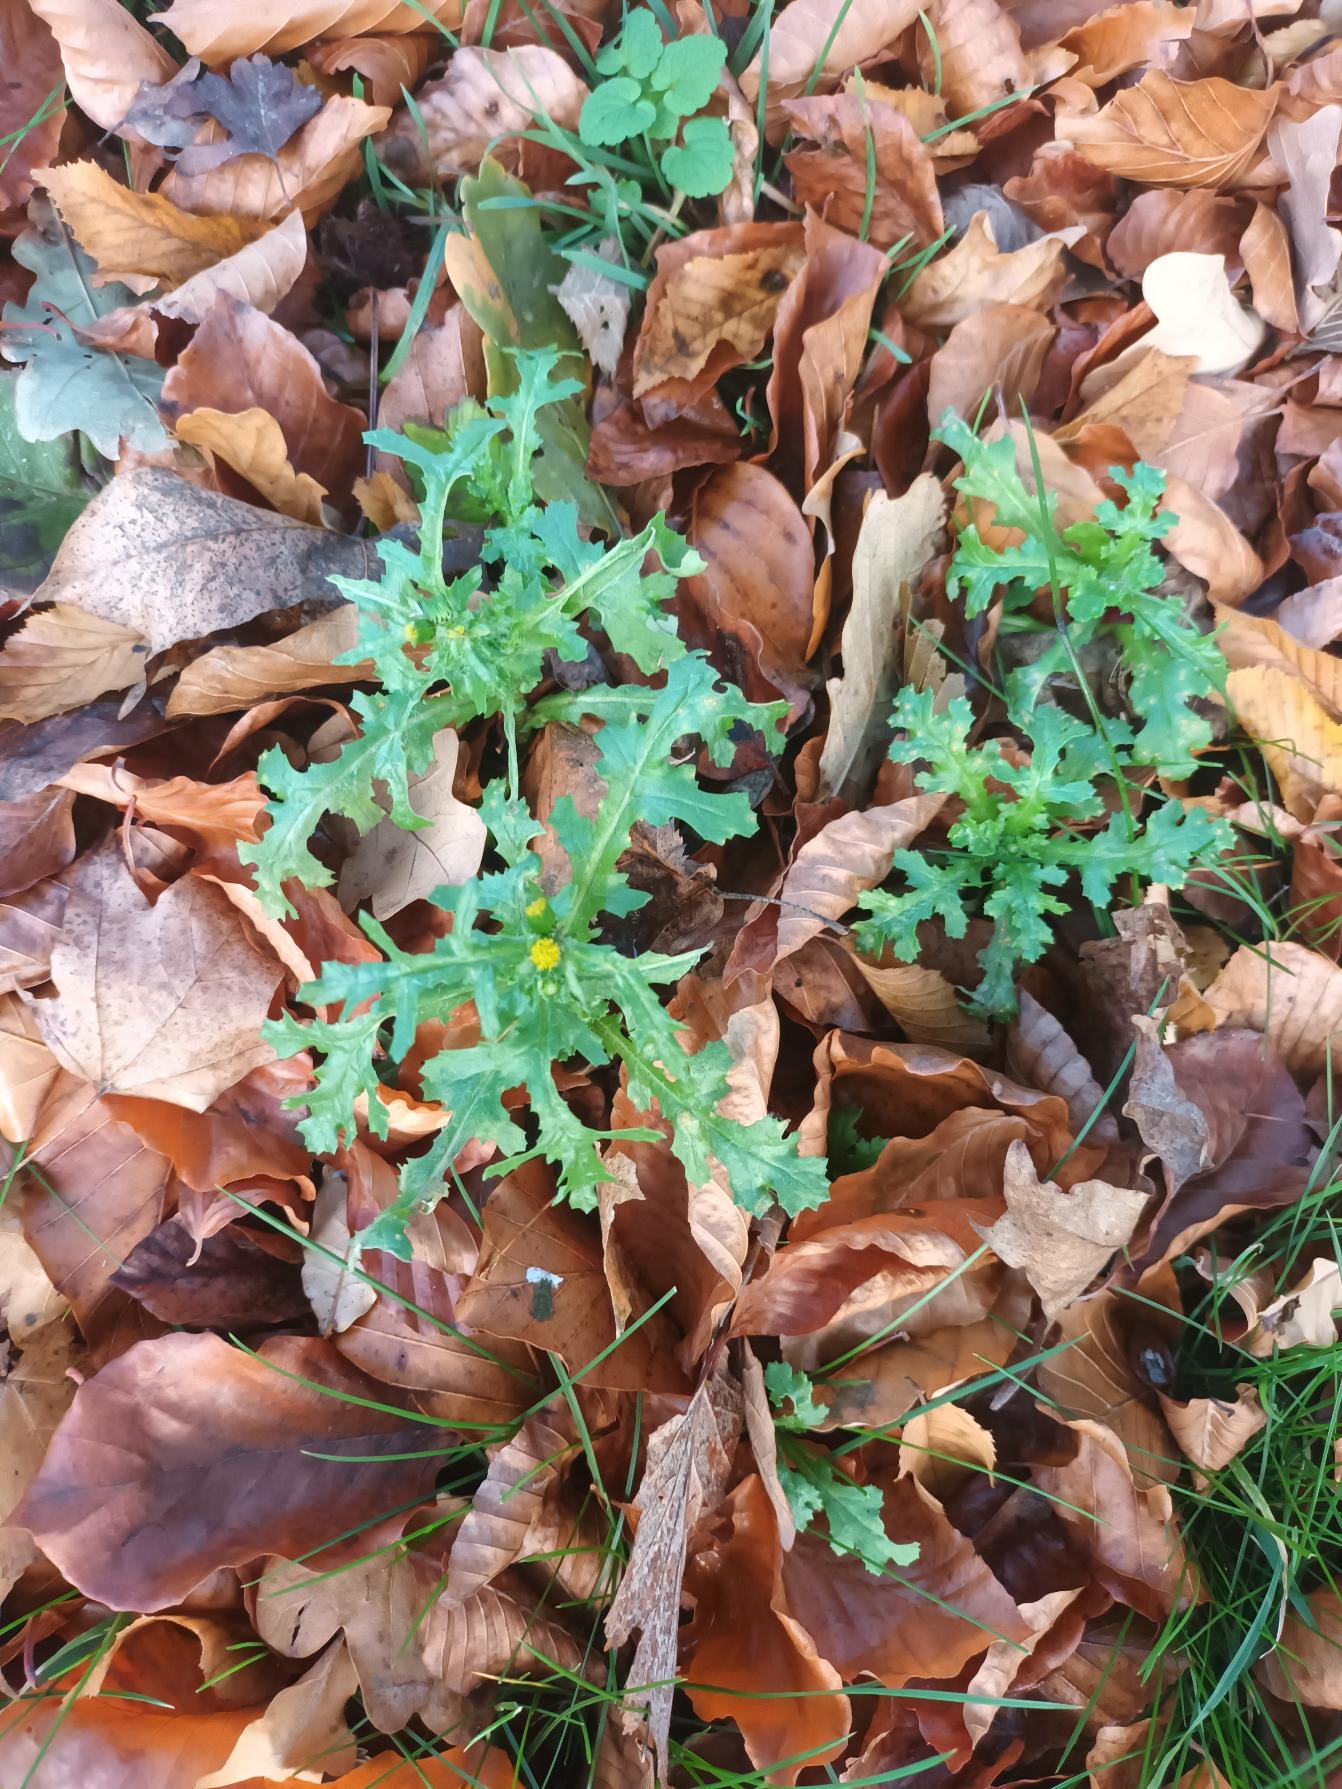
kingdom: Plantae
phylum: Tracheophyta
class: Magnoliopsida
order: Asterales
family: Asteraceae
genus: Senecio
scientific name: Senecio vulgaris
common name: Almindelig brandbæger
